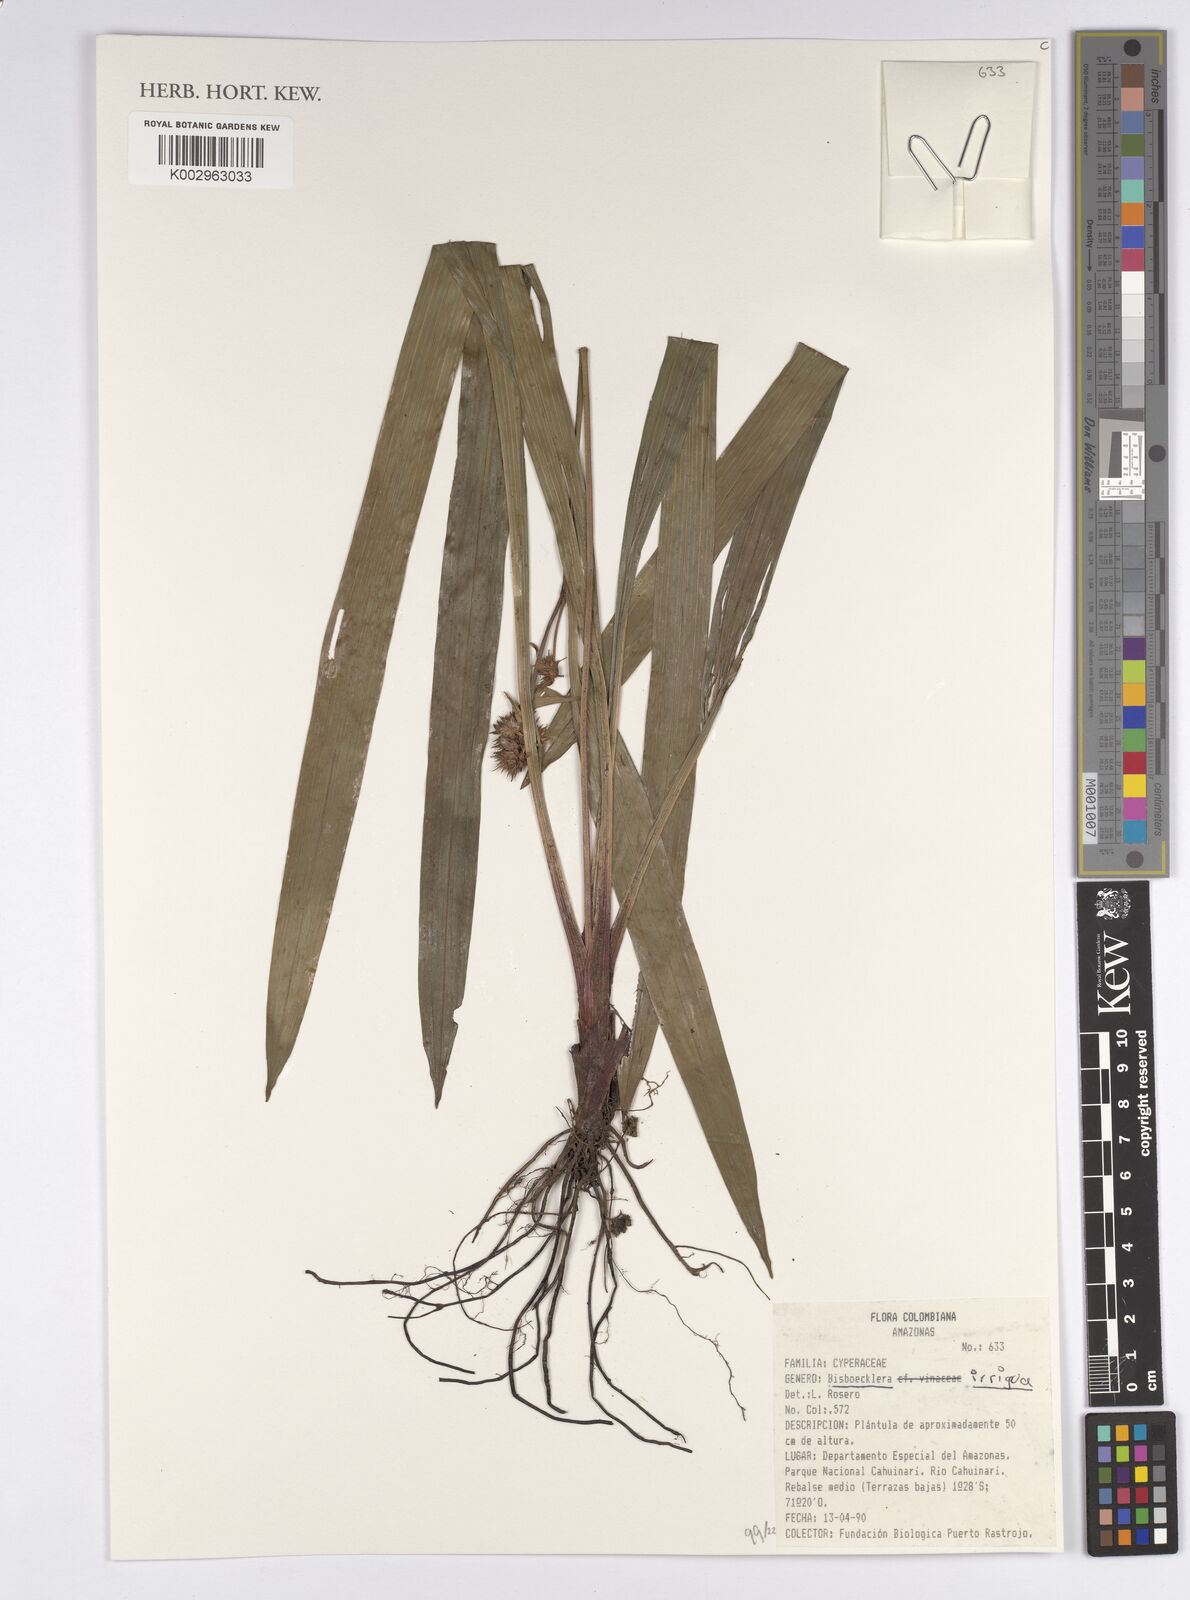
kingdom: Plantae
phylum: Tracheophyta
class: Liliopsida
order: Poales
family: Cyperaceae
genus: Bisboeckelera
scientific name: Bisboeckelera irrigua
